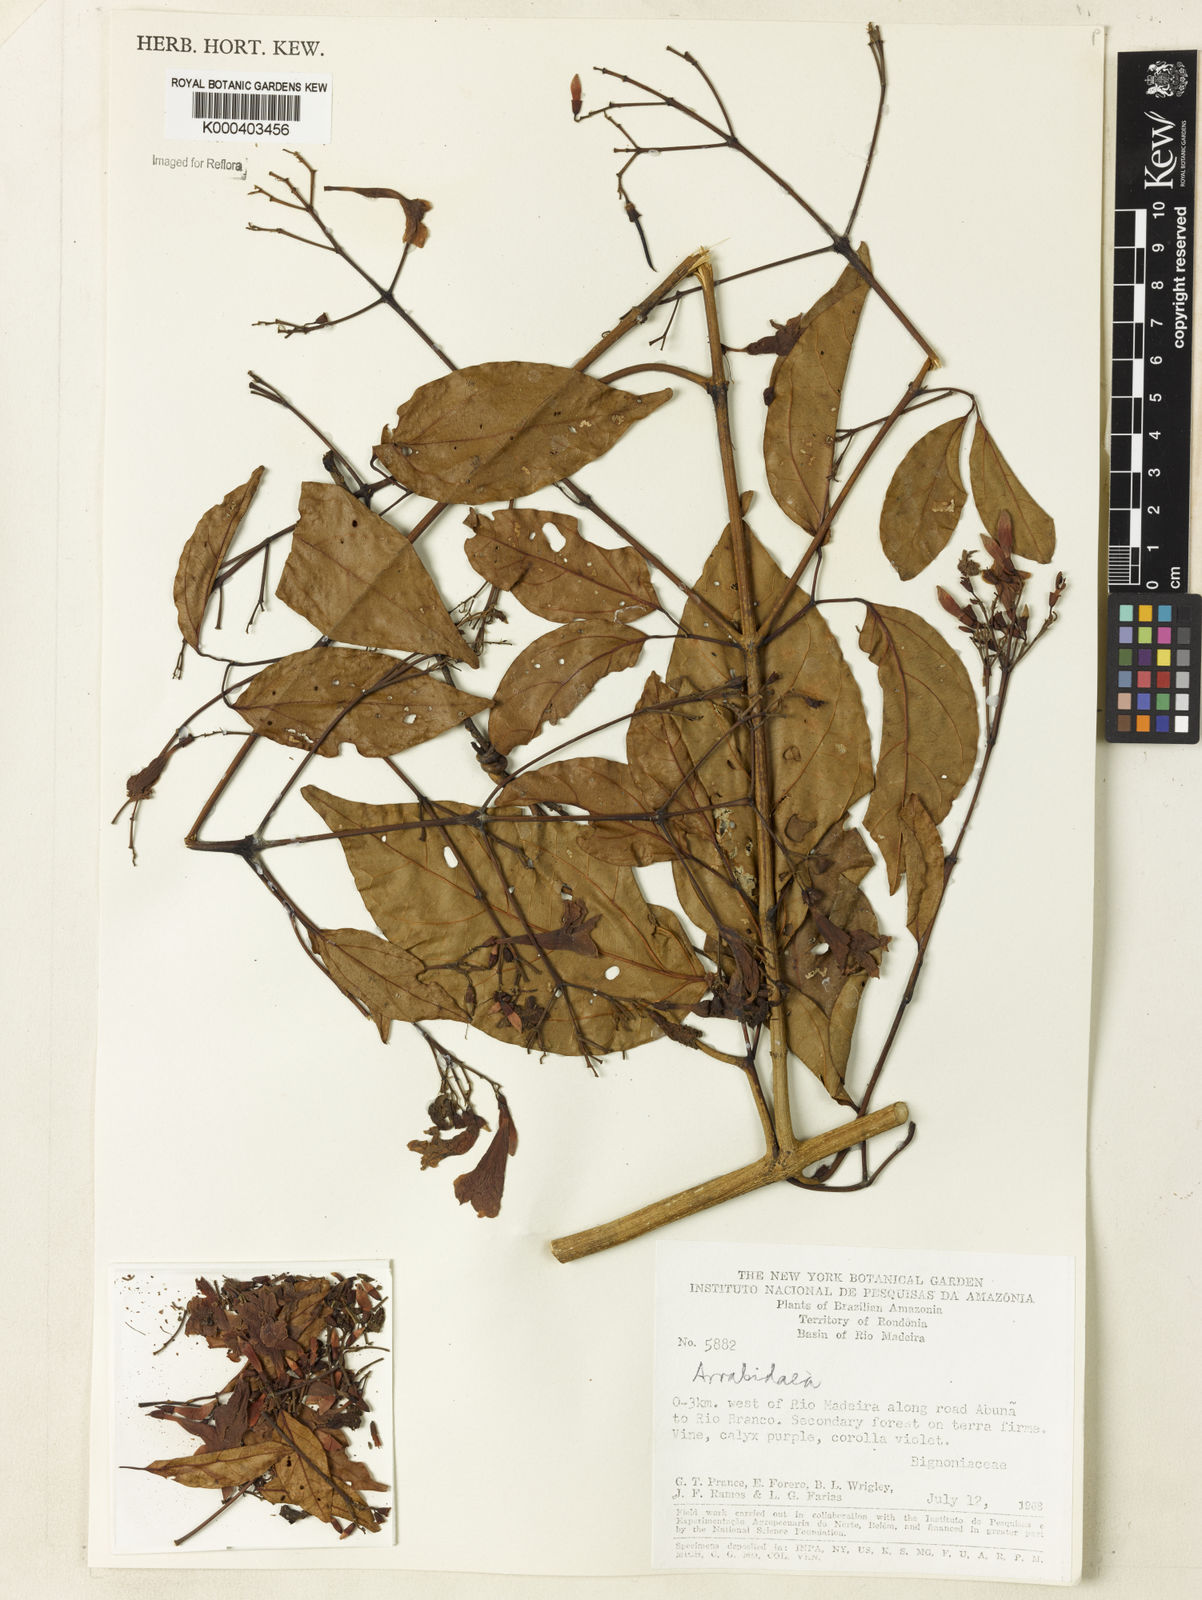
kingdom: Plantae
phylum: Tracheophyta
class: Magnoliopsida
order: Rosales
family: Rhamnaceae
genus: Arrabidaea
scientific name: Arrabidaea
